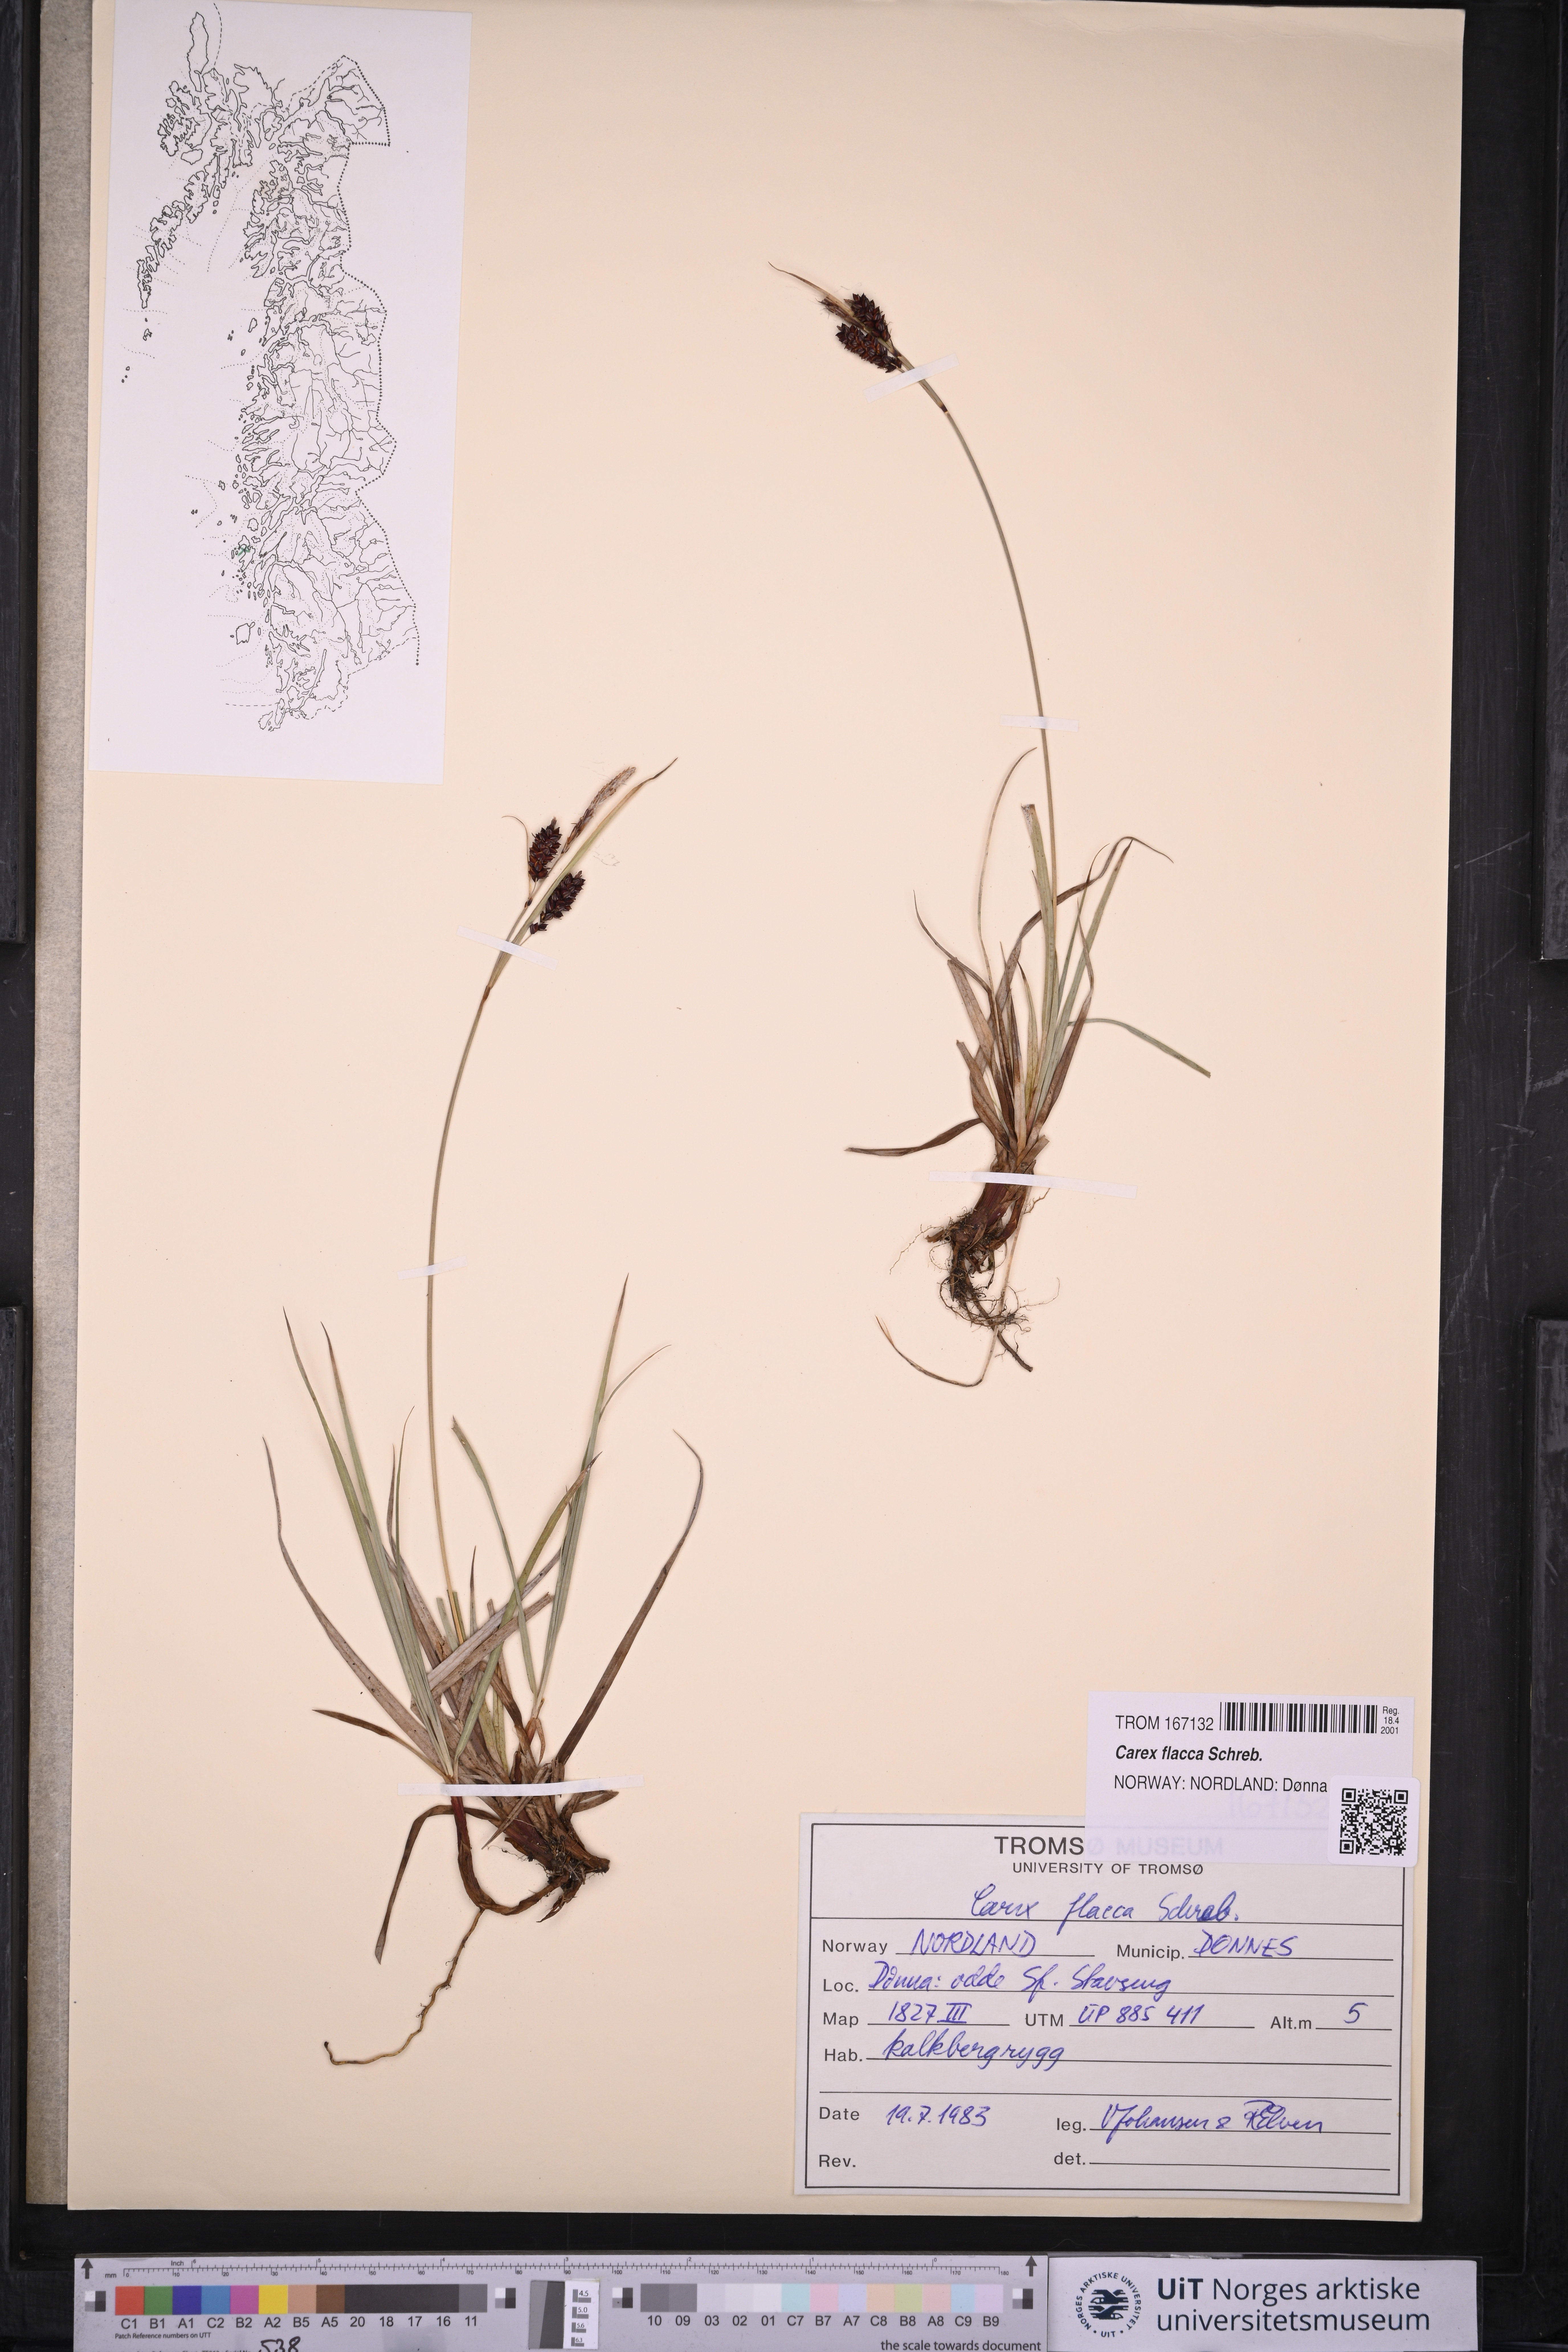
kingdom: Plantae
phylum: Tracheophyta
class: Liliopsida
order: Poales
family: Cyperaceae
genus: Carex
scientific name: Carex flacca
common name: Glaucous sedge
